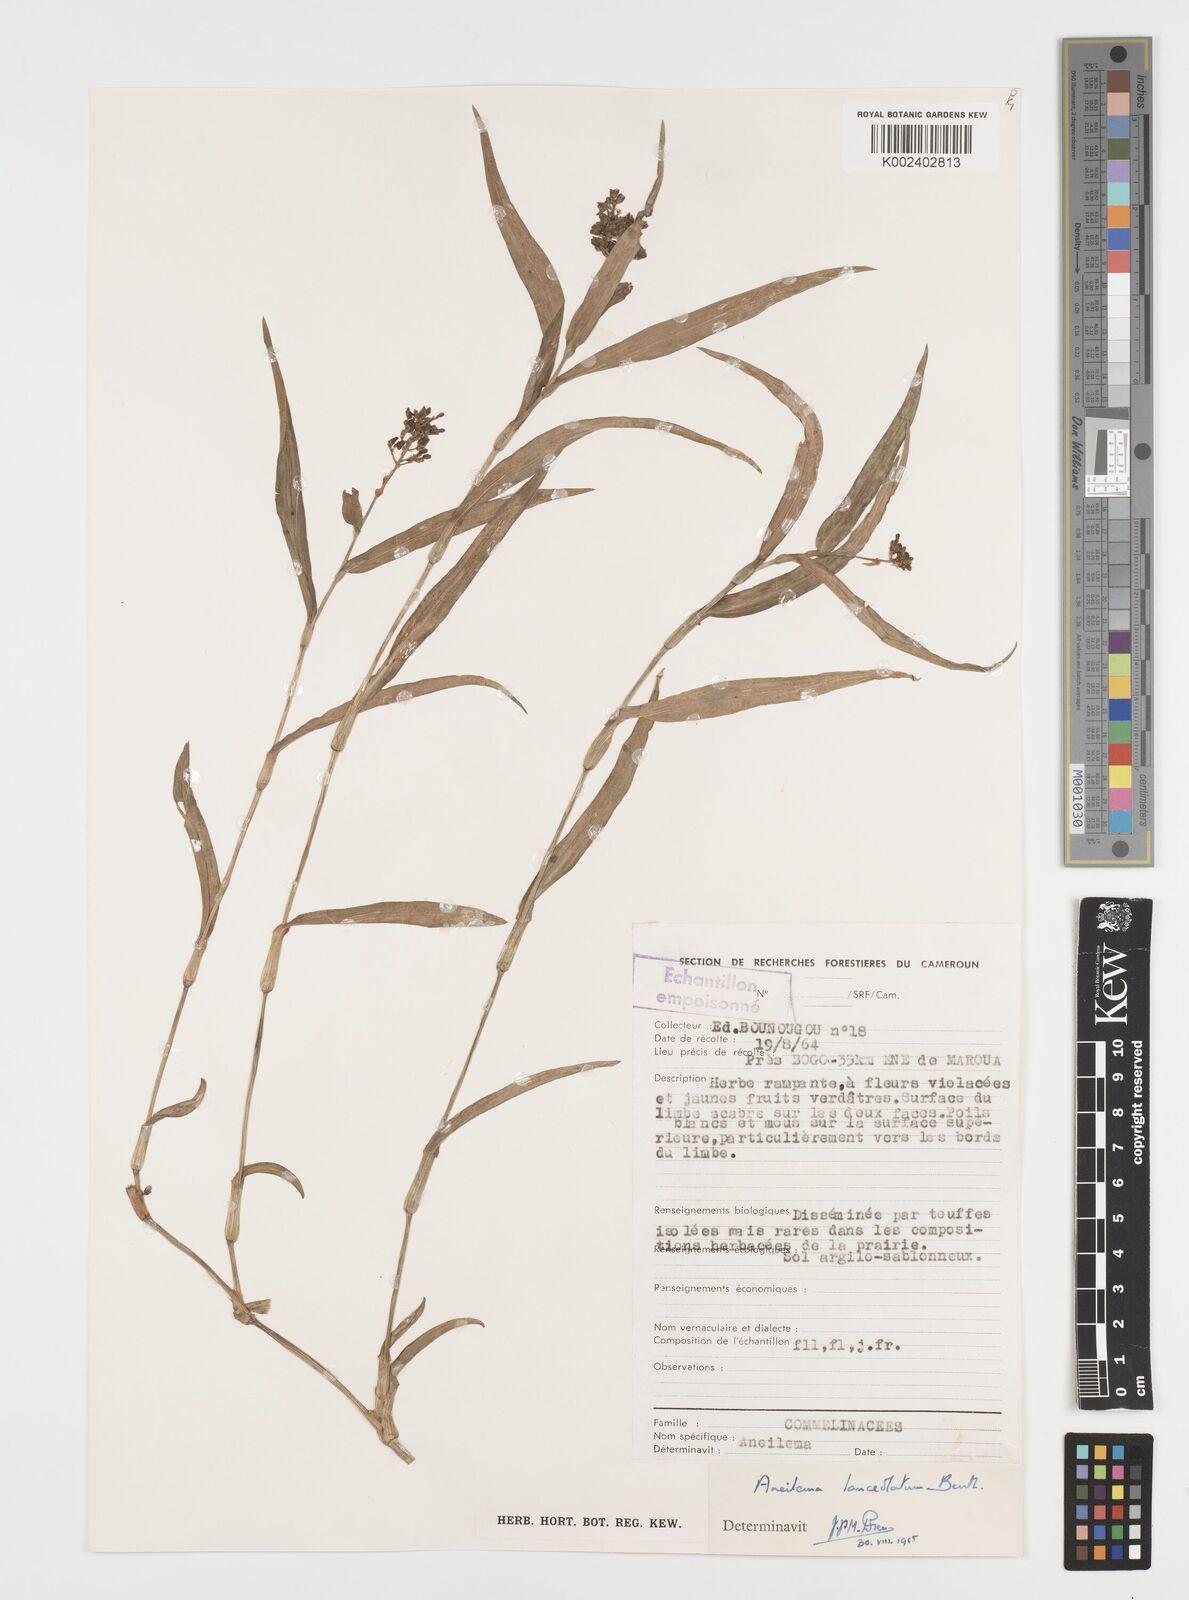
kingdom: Plantae
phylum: Tracheophyta
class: Liliopsida
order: Commelinales
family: Commelinaceae
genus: Aneilema
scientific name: Aneilema lanceolatum
